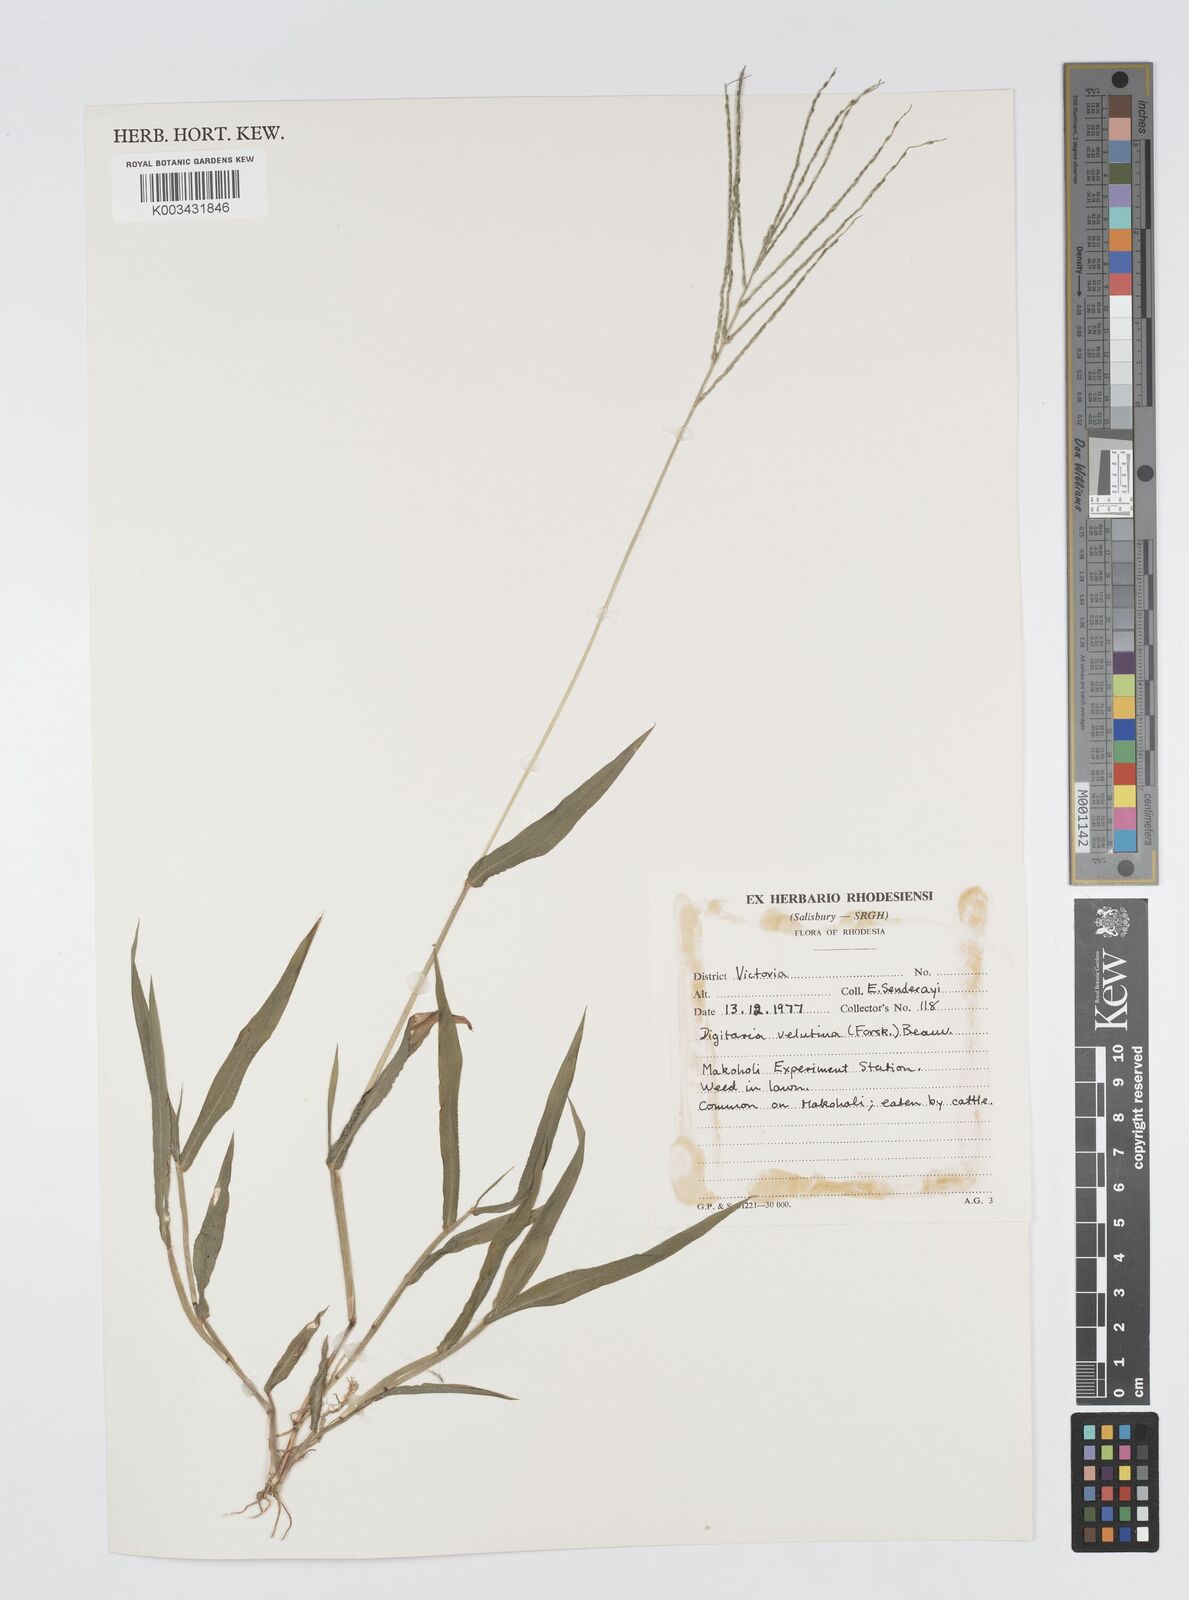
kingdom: Plantae
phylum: Tracheophyta
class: Liliopsida
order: Poales
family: Poaceae
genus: Digitaria
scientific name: Digitaria velutina
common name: Long-plume finger grass
